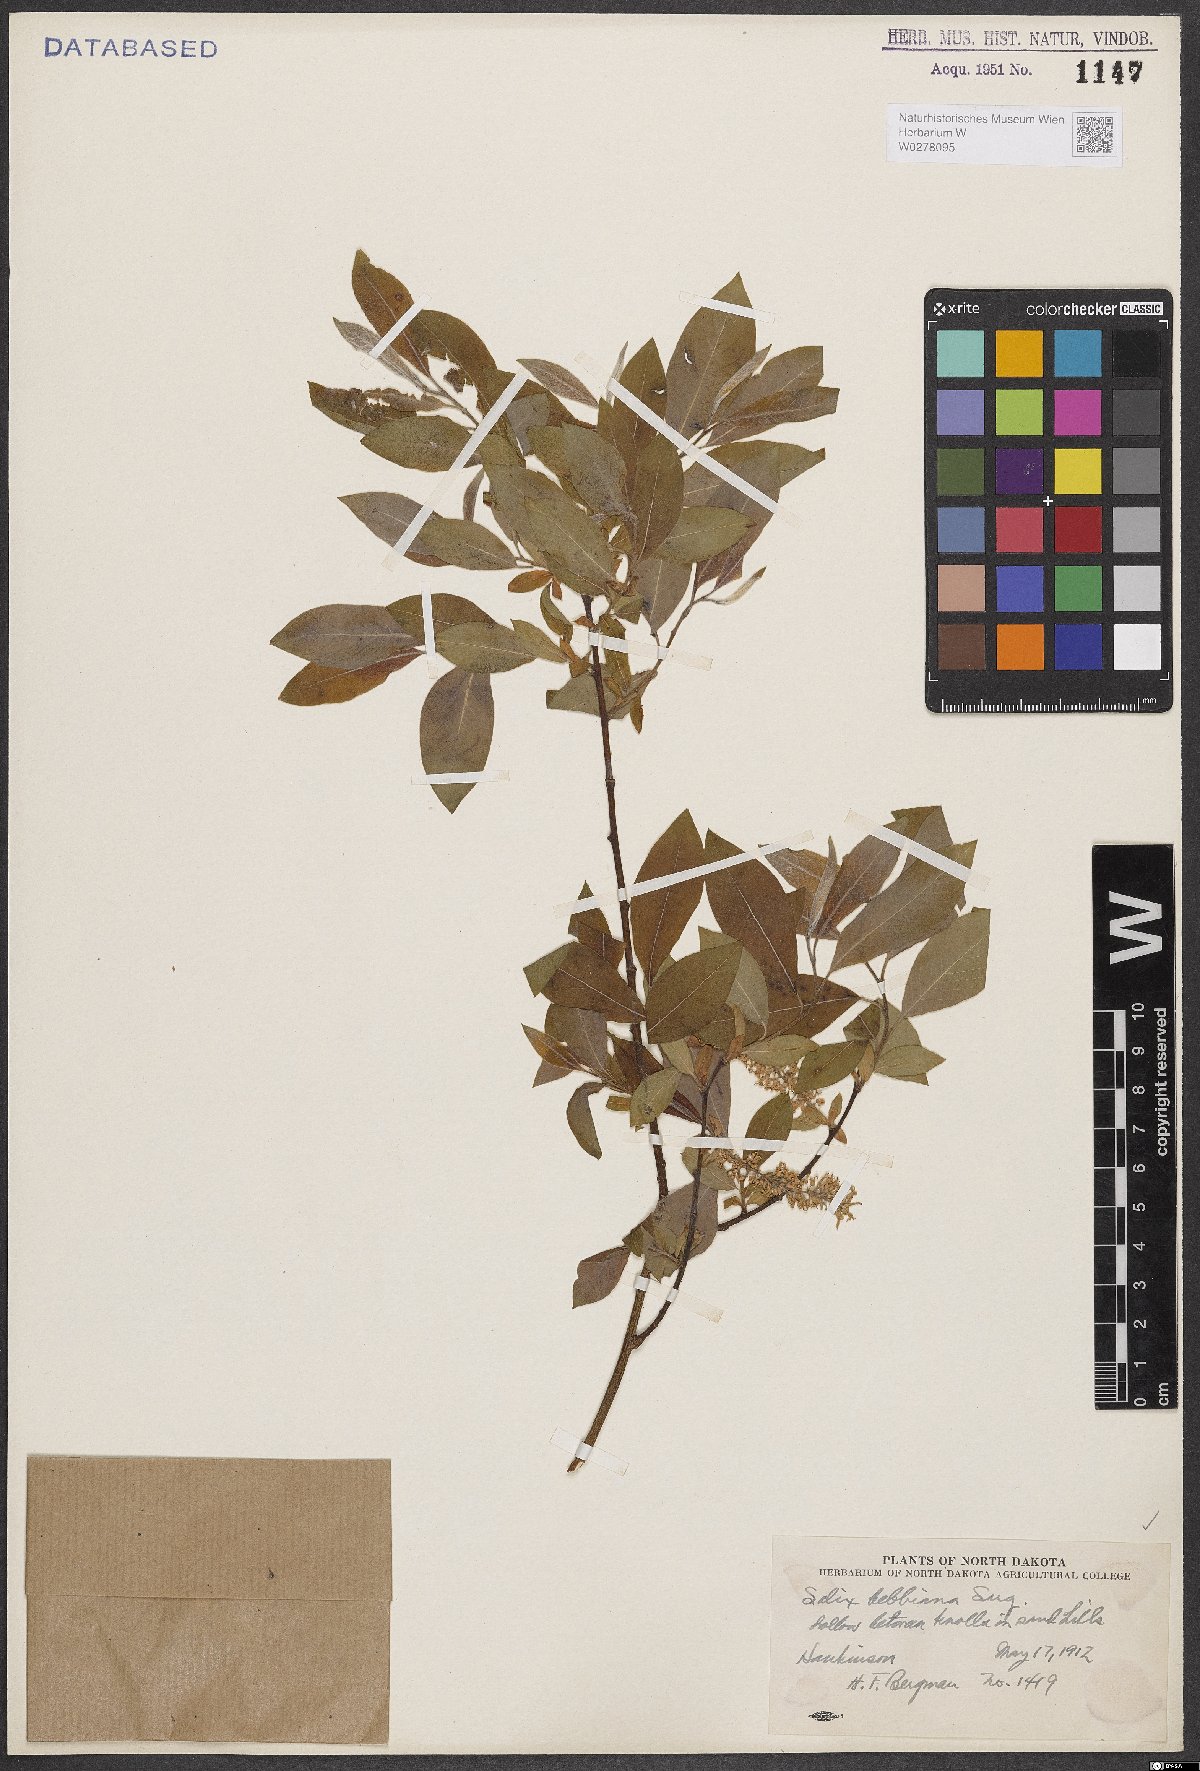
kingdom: Plantae
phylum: Tracheophyta
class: Magnoliopsida
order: Malpighiales
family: Salicaceae
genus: Salix
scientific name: Salix bebbiana
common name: Bebb's willow
